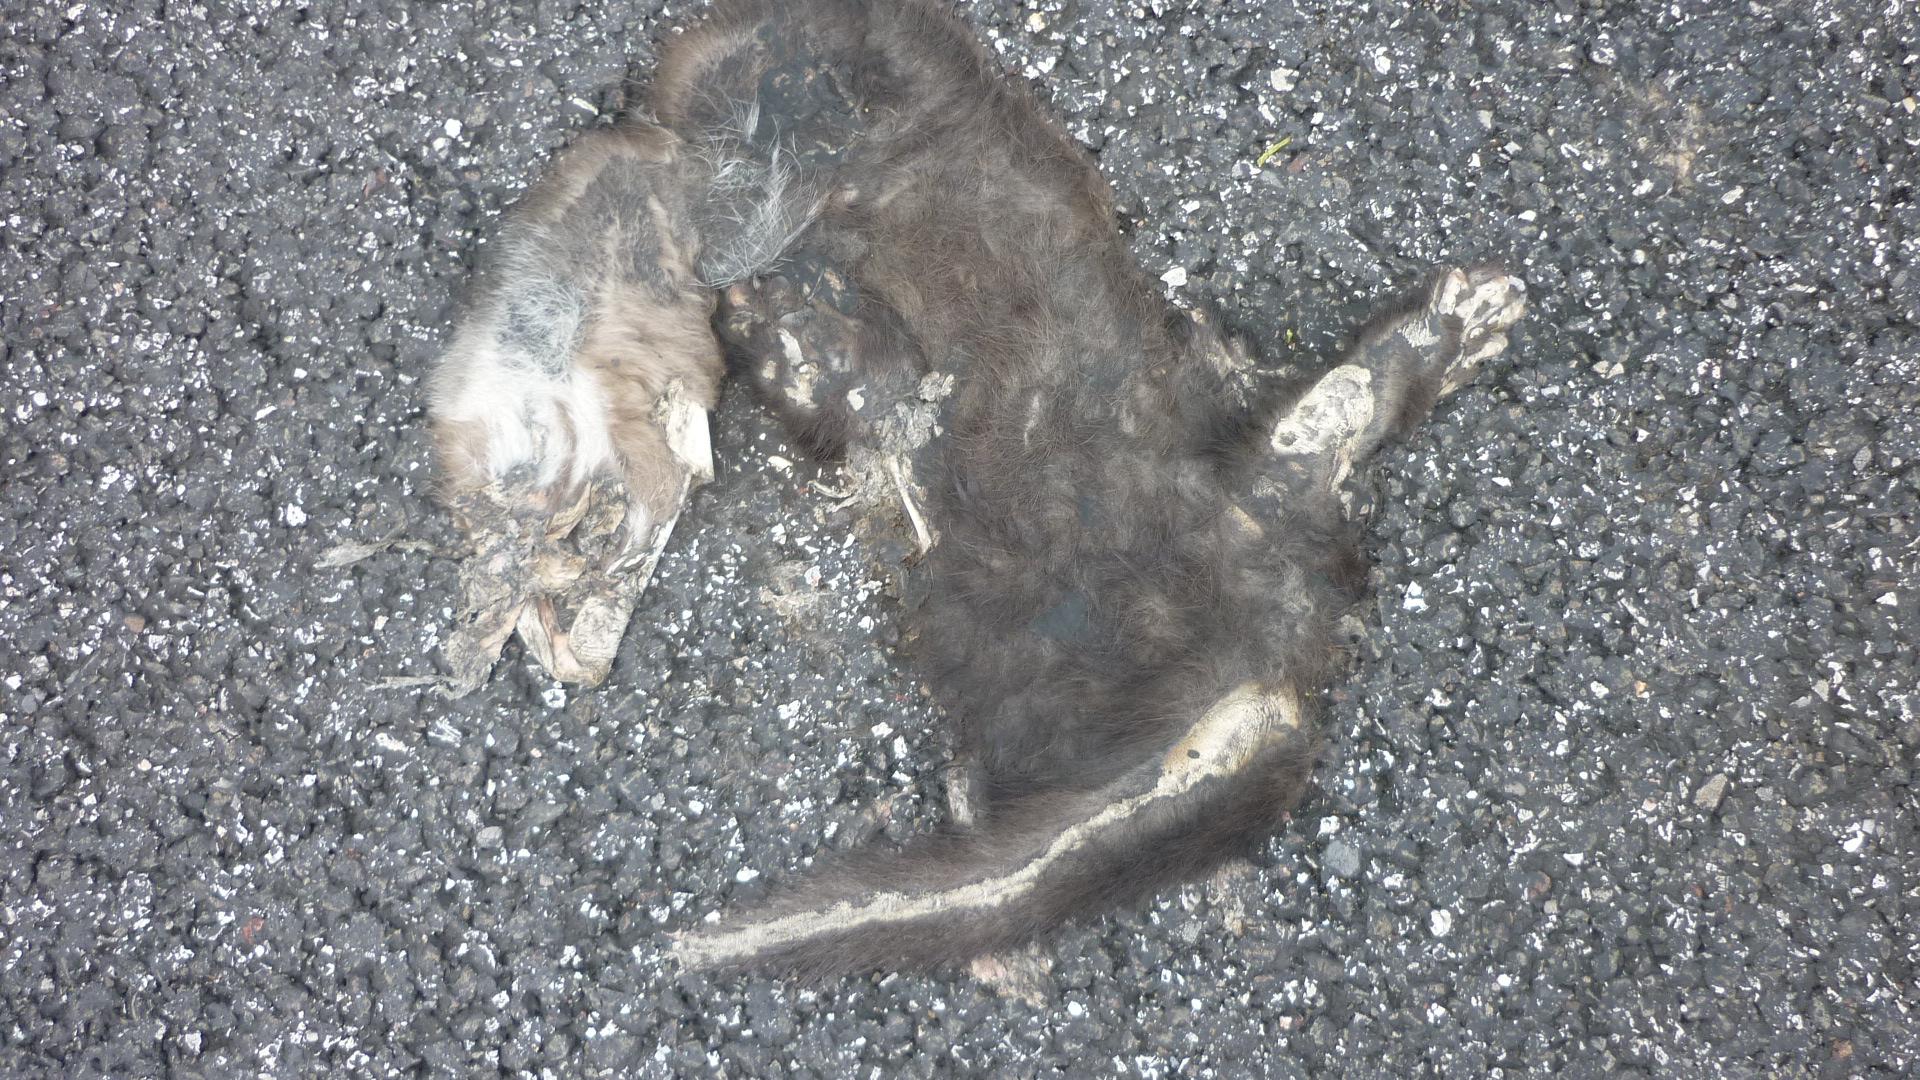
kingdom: Animalia
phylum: Chordata
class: Mammalia
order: Carnivora
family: Mustelidae
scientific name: Mustelidae
